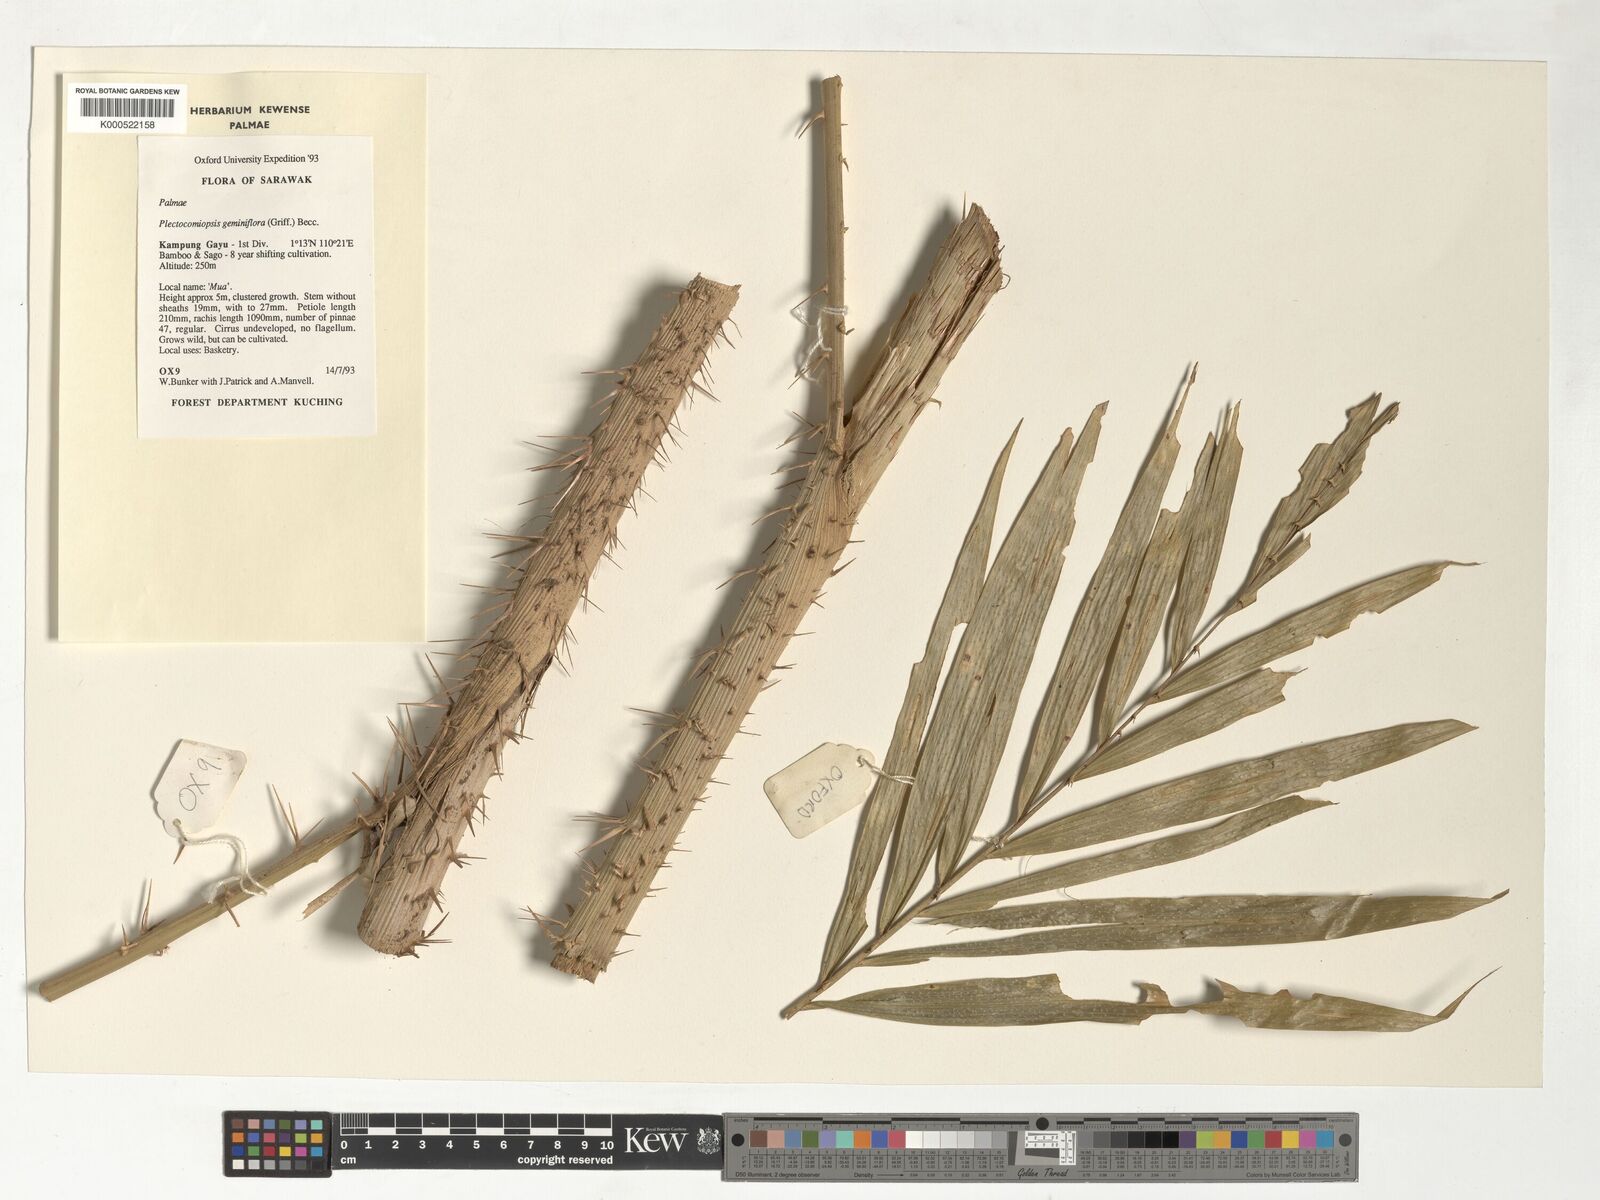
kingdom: Plantae
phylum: Tracheophyta
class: Liliopsida
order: Arecales
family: Arecaceae
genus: Plectocomiopsis
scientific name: Plectocomiopsis geminiflora
